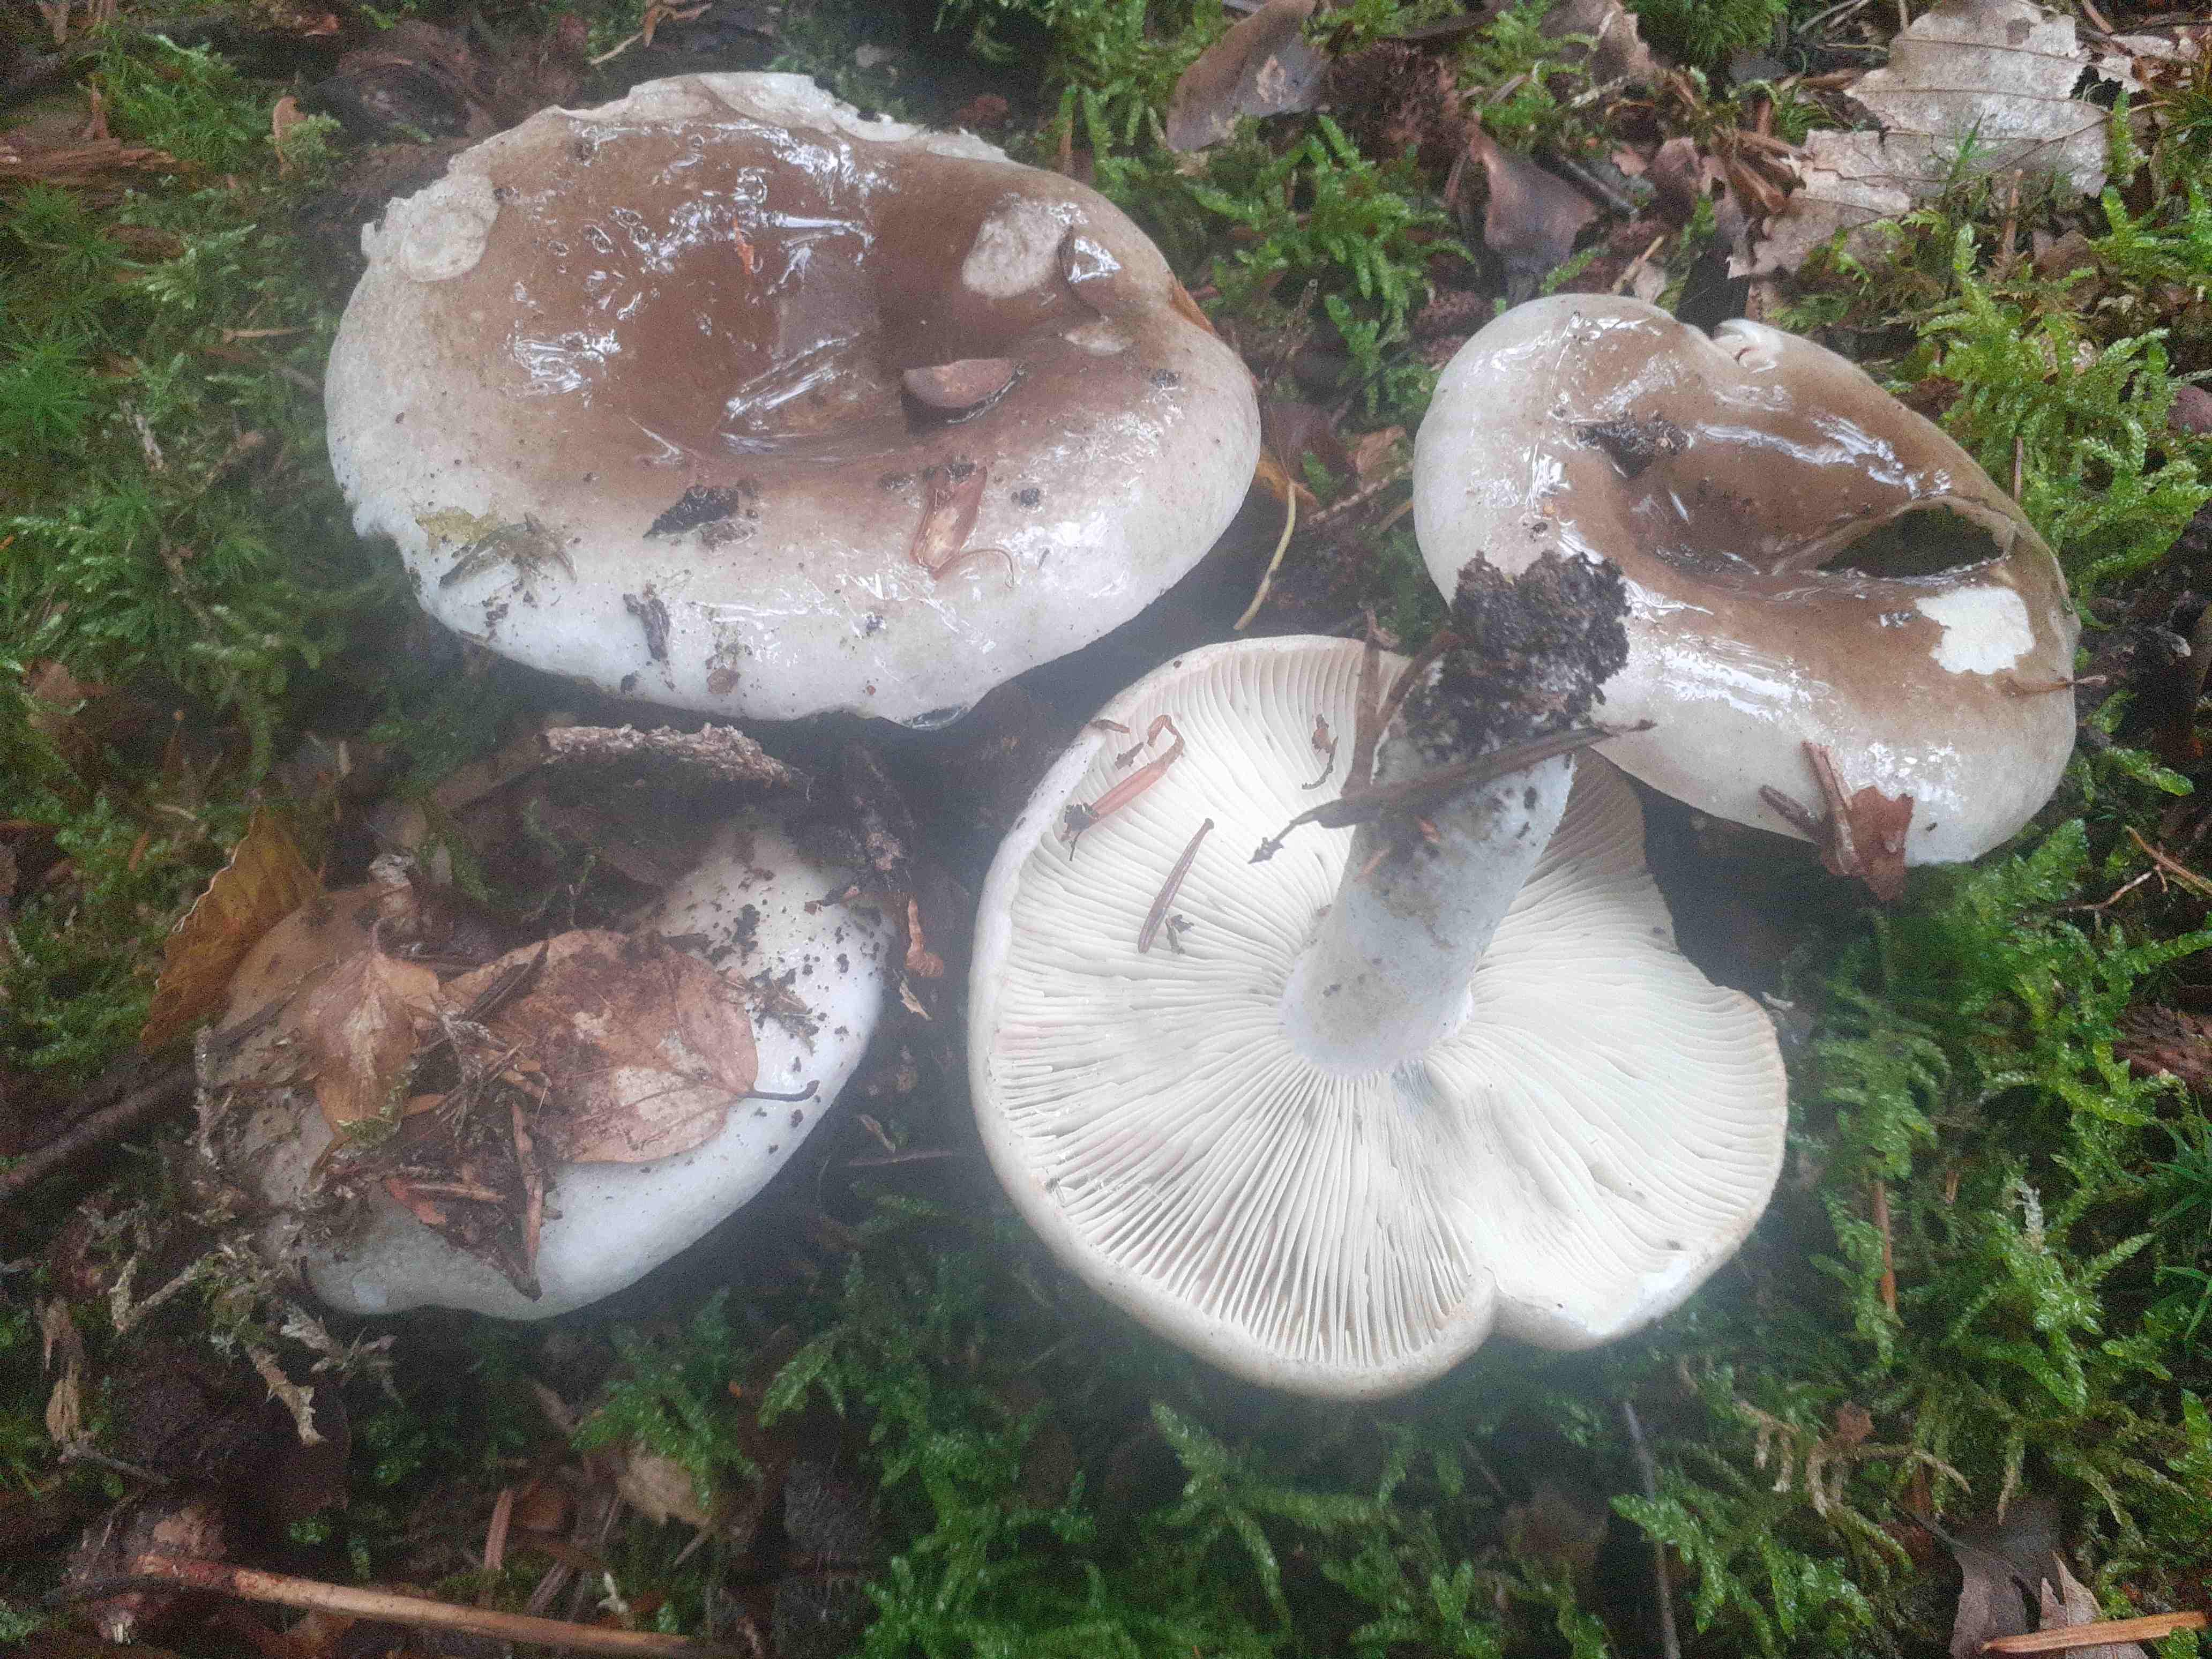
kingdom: Fungi
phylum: Basidiomycota
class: Agaricomycetes
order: Russulales
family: Russulaceae
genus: Russula
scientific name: Russula densifolia
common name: tætbladet skørhat
